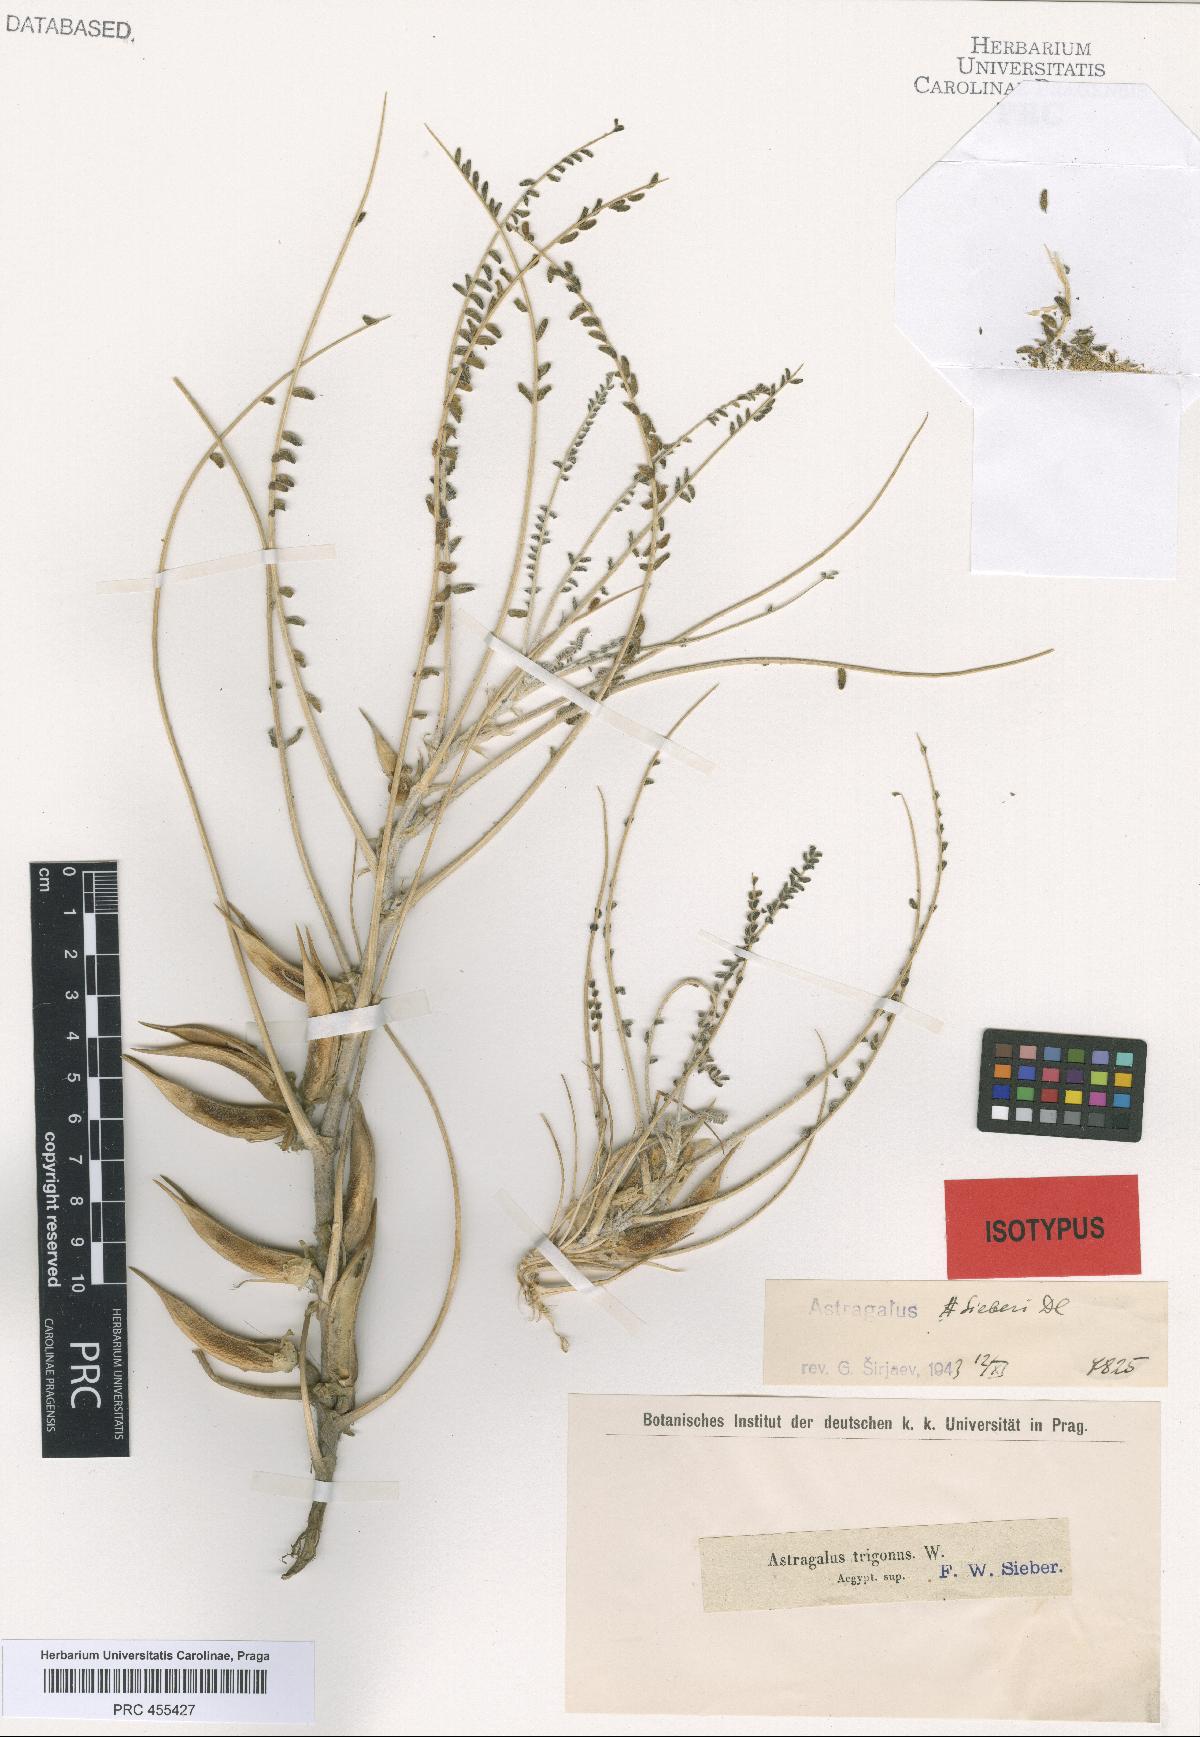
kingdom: Plantae
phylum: Tracheophyta
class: Magnoliopsida
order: Fabales
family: Fabaceae
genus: Astragalus
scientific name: Astragalus sieberi
